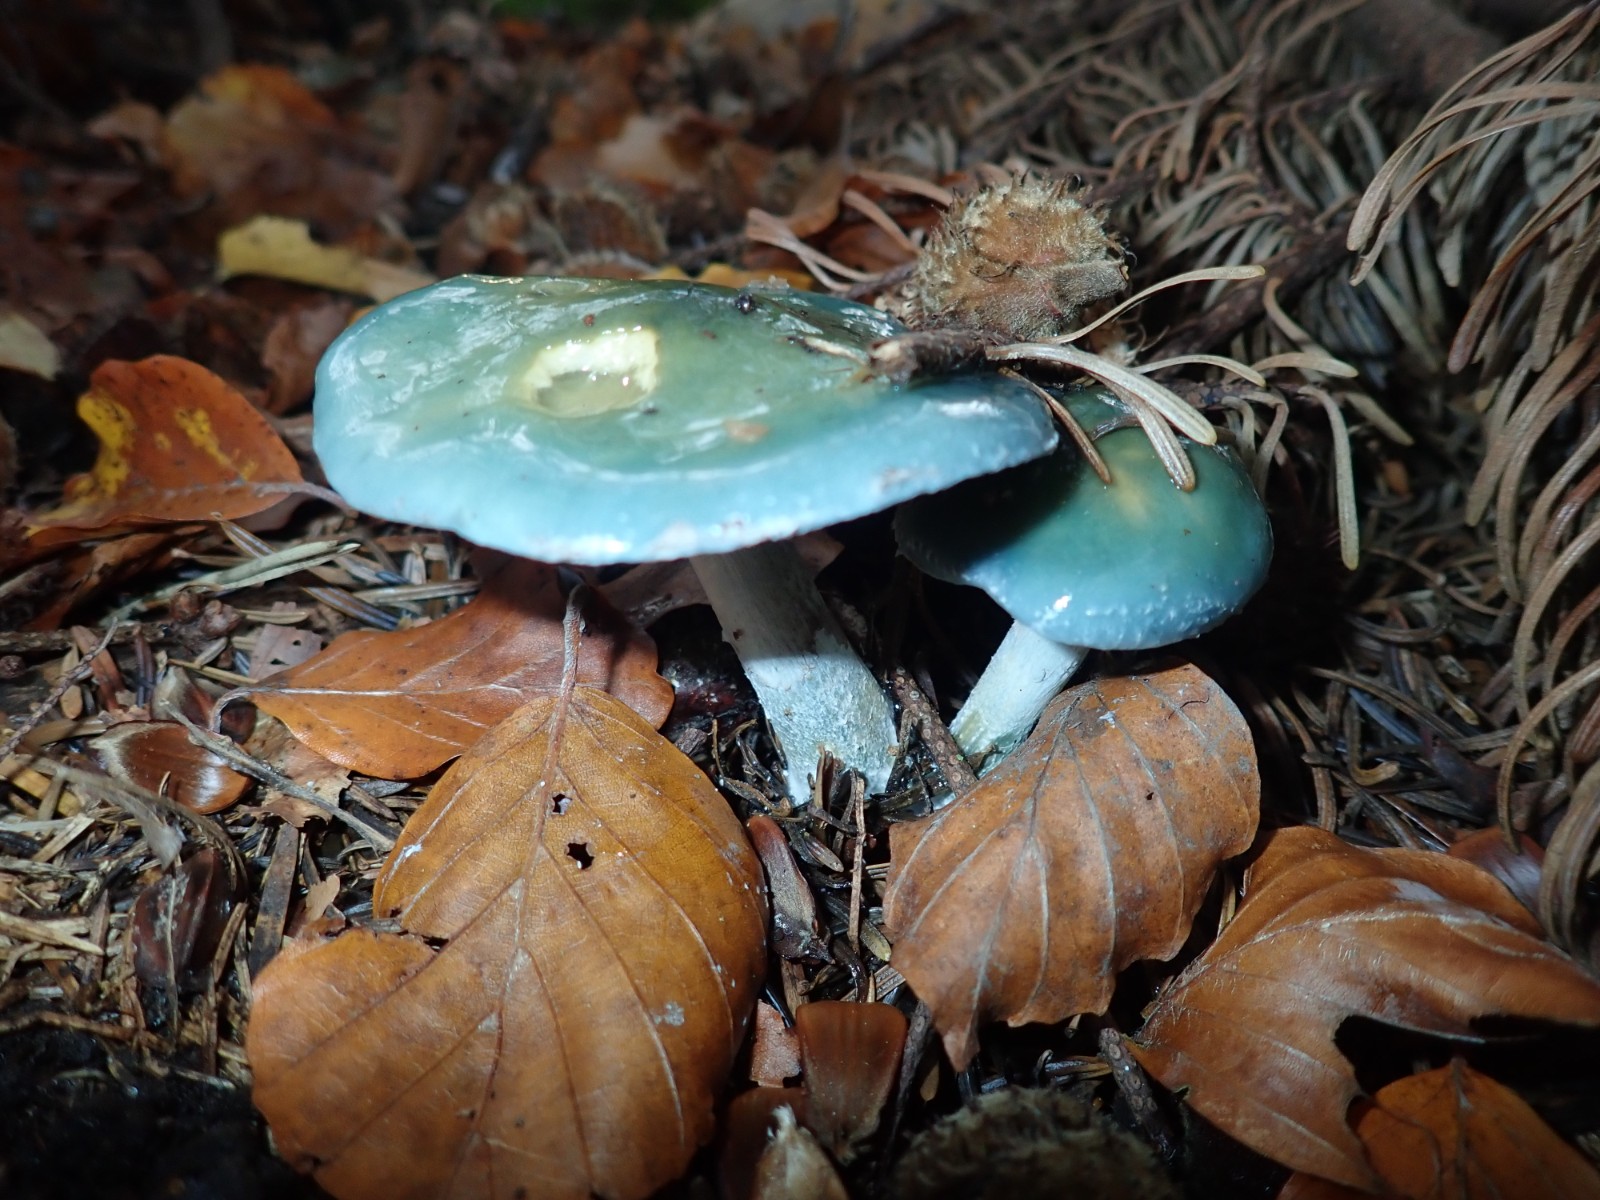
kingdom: Fungi
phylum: Basidiomycota
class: Agaricomycetes
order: Agaricales
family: Strophariaceae
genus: Stropharia
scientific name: Stropharia cyanea
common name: blågrøn bredblad
